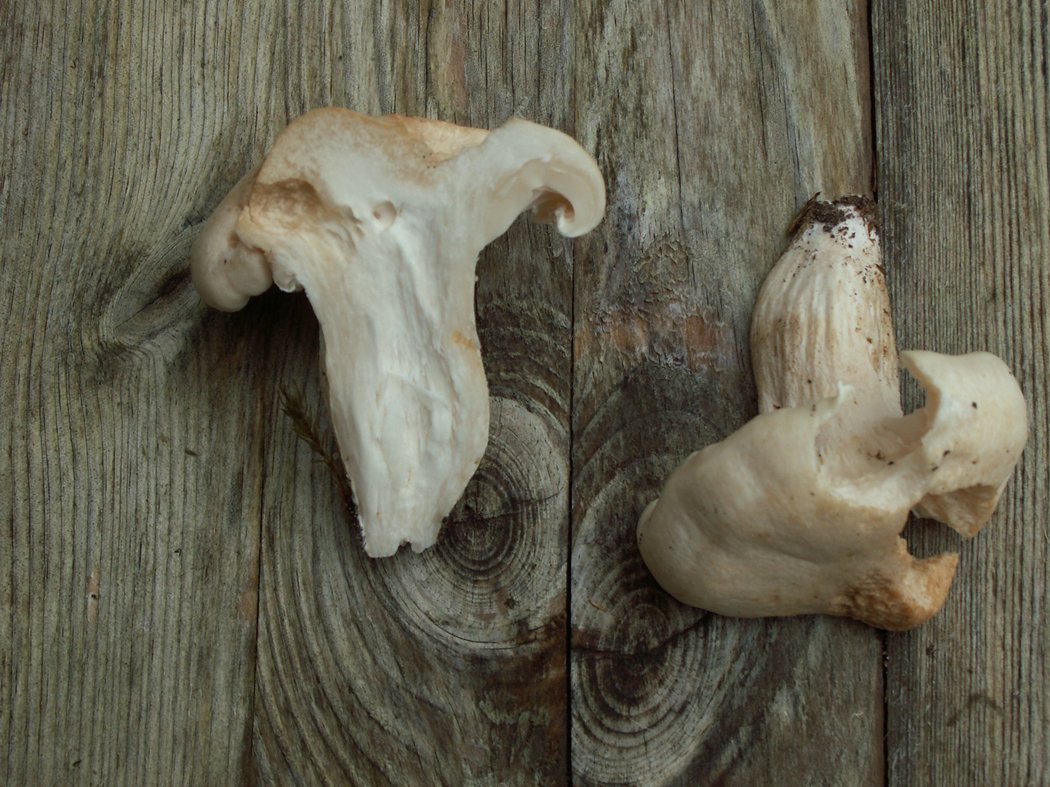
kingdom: Fungi
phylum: Basidiomycota
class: Agaricomycetes
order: Agaricales
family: Hygrophoraceae
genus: Hygrophorus
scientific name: Hygrophorus penarius
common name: spiselig sneglehat
